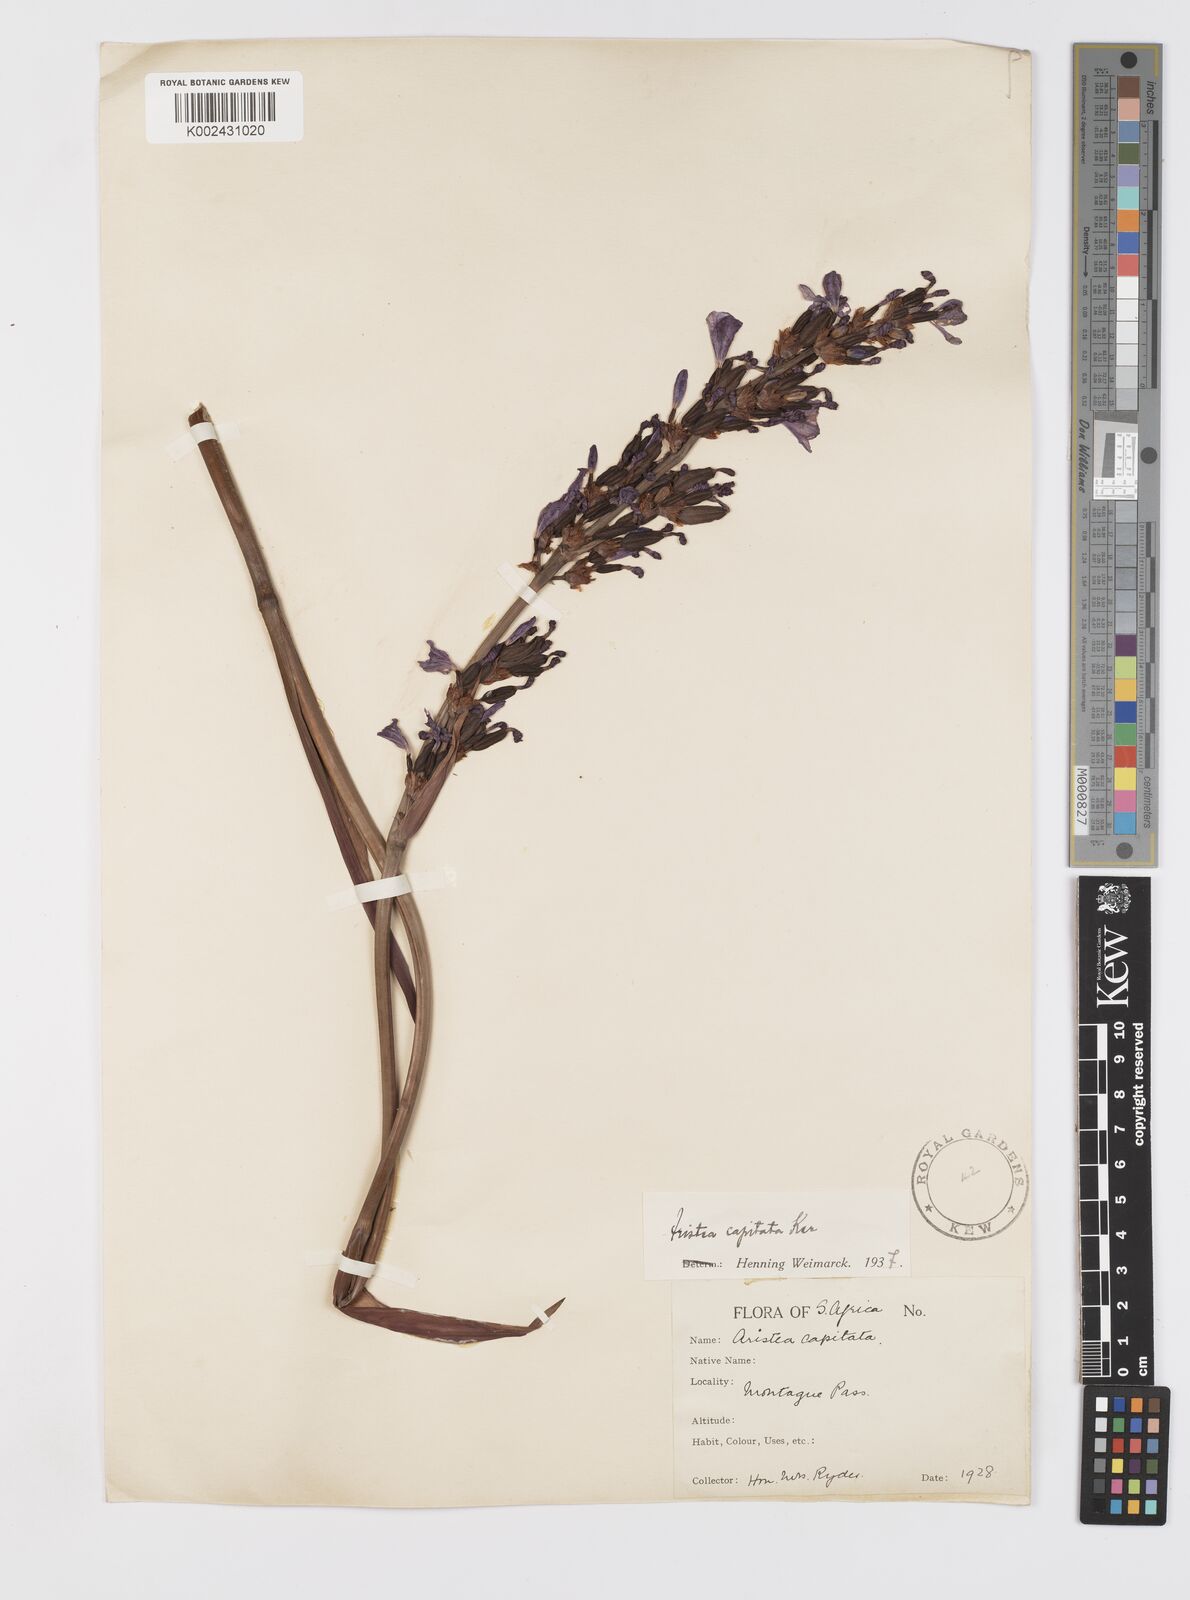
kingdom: Plantae
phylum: Tracheophyta
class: Liliopsida
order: Asparagales
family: Iridaceae
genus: Aristea
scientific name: Aristea capitata
